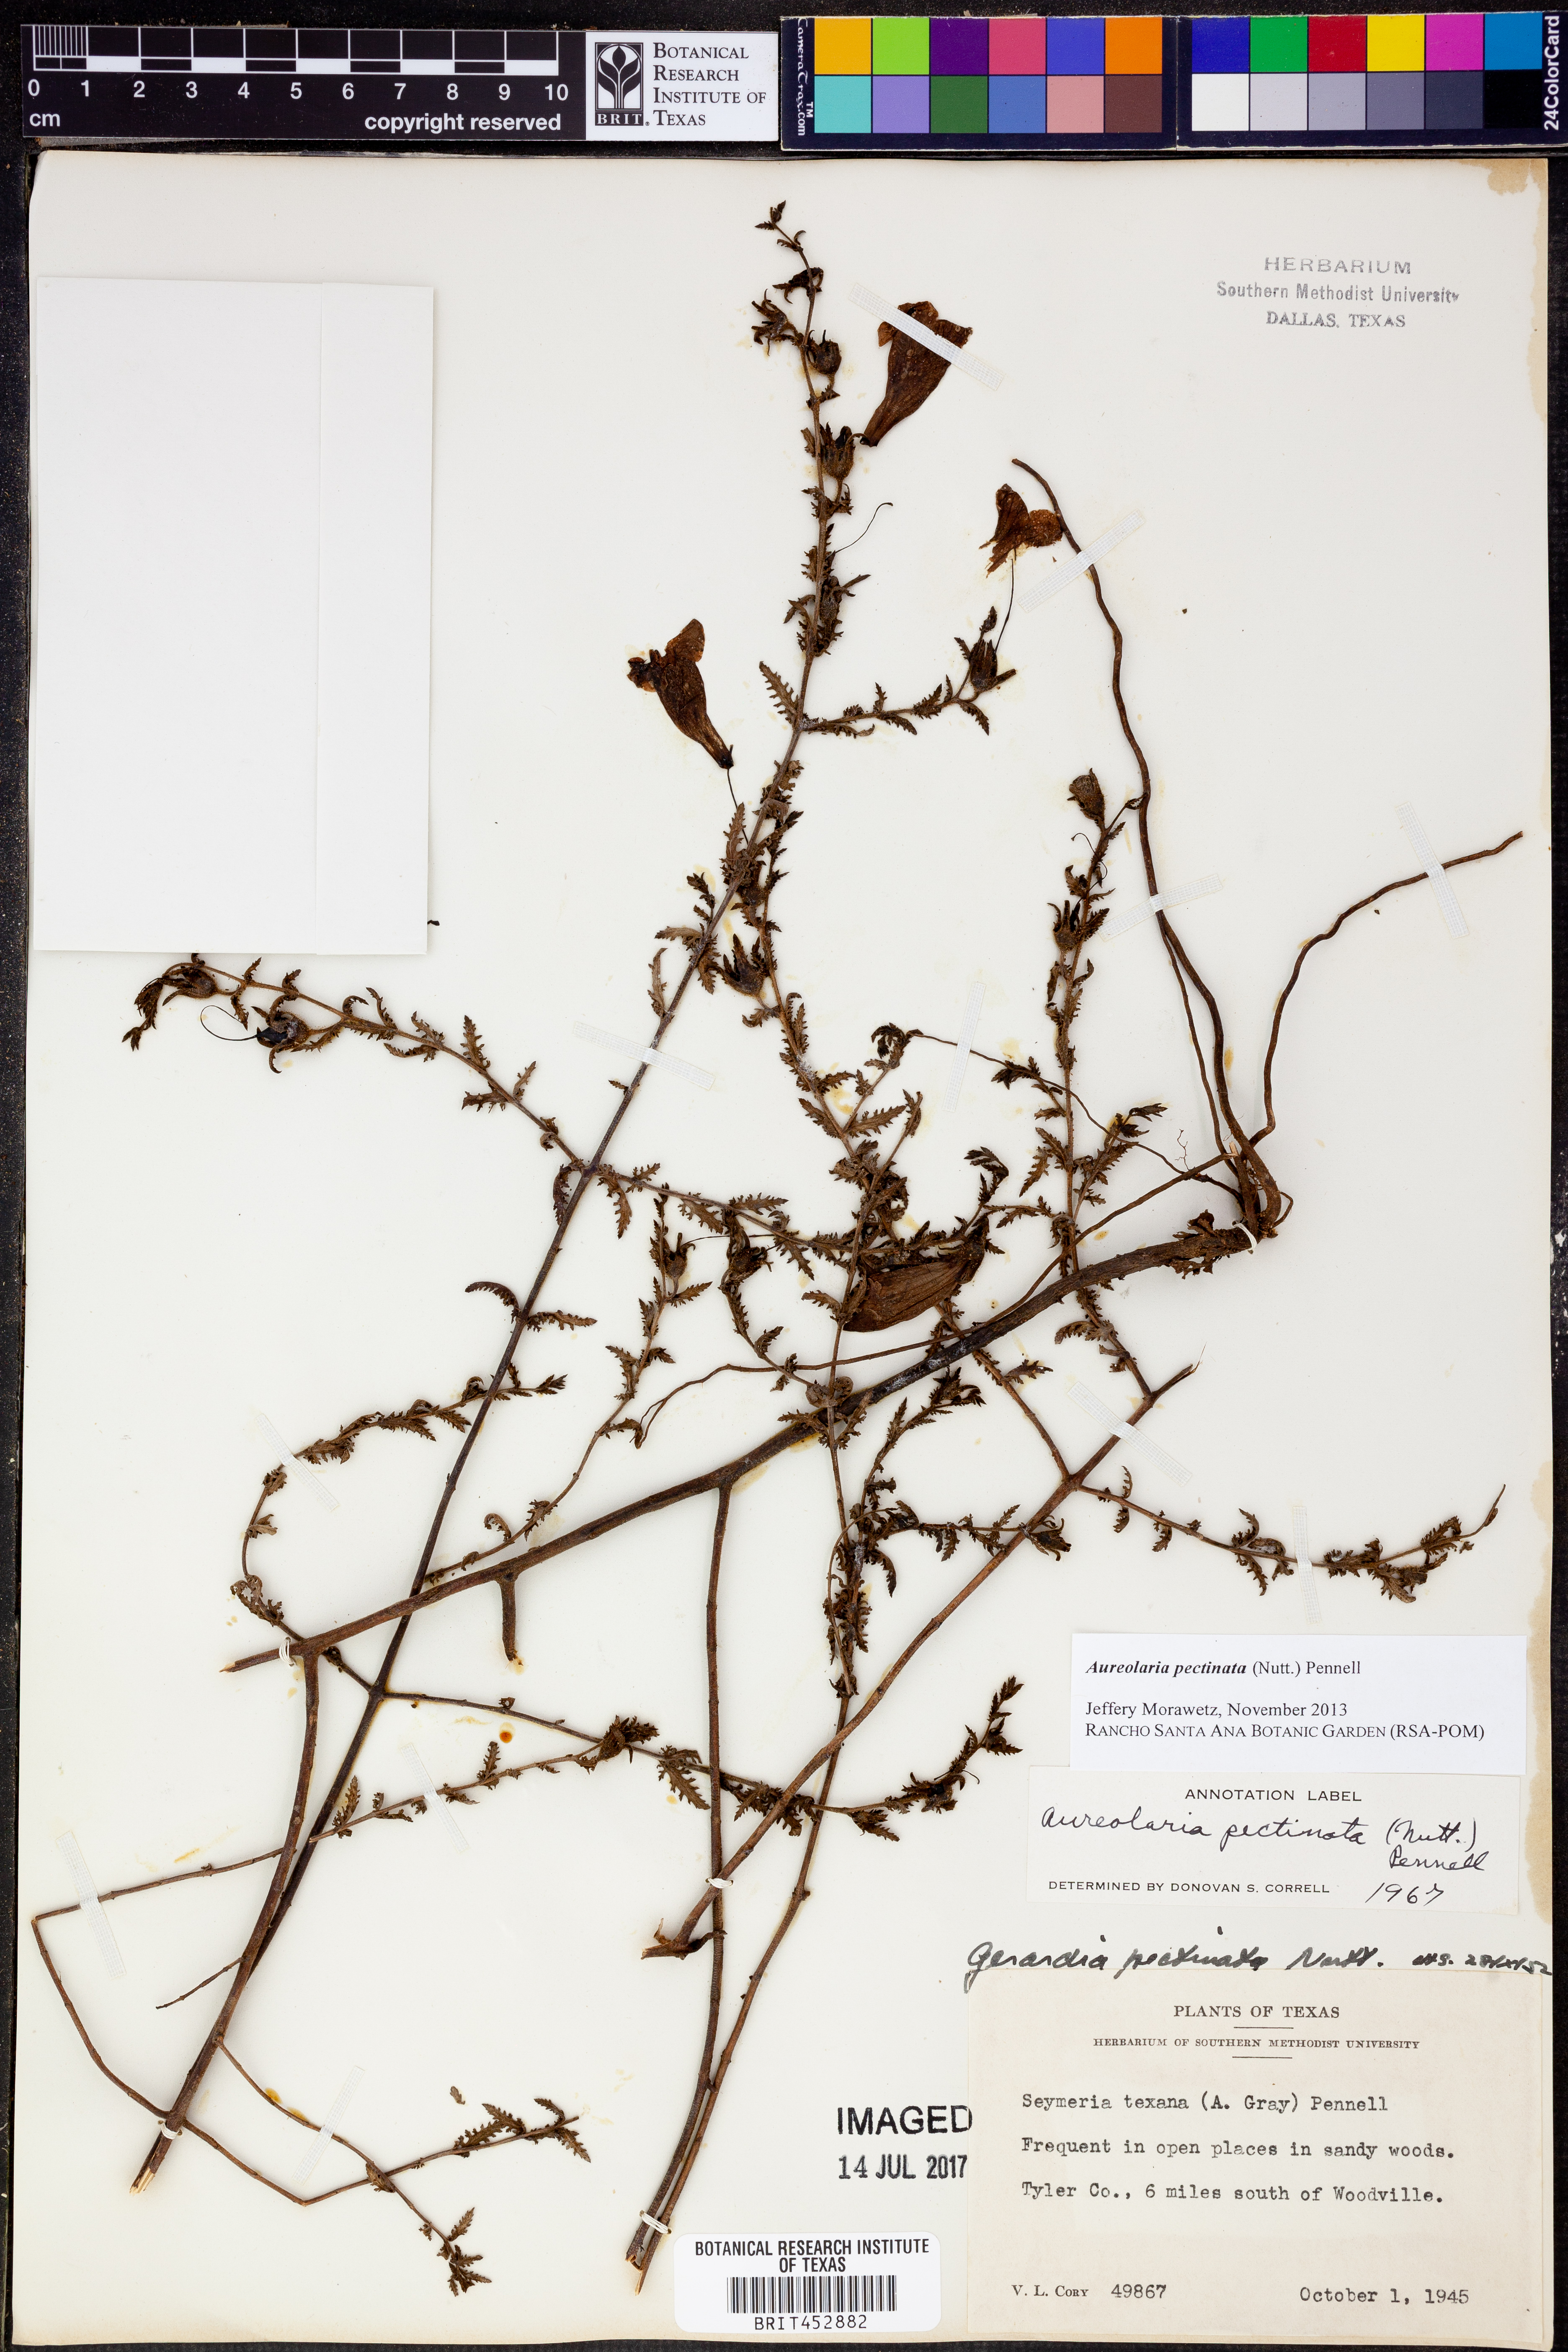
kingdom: Plantae
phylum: Tracheophyta
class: Magnoliopsida
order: Lamiales
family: Orobanchaceae
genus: Aureolaria
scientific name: Aureolaria pectinata
